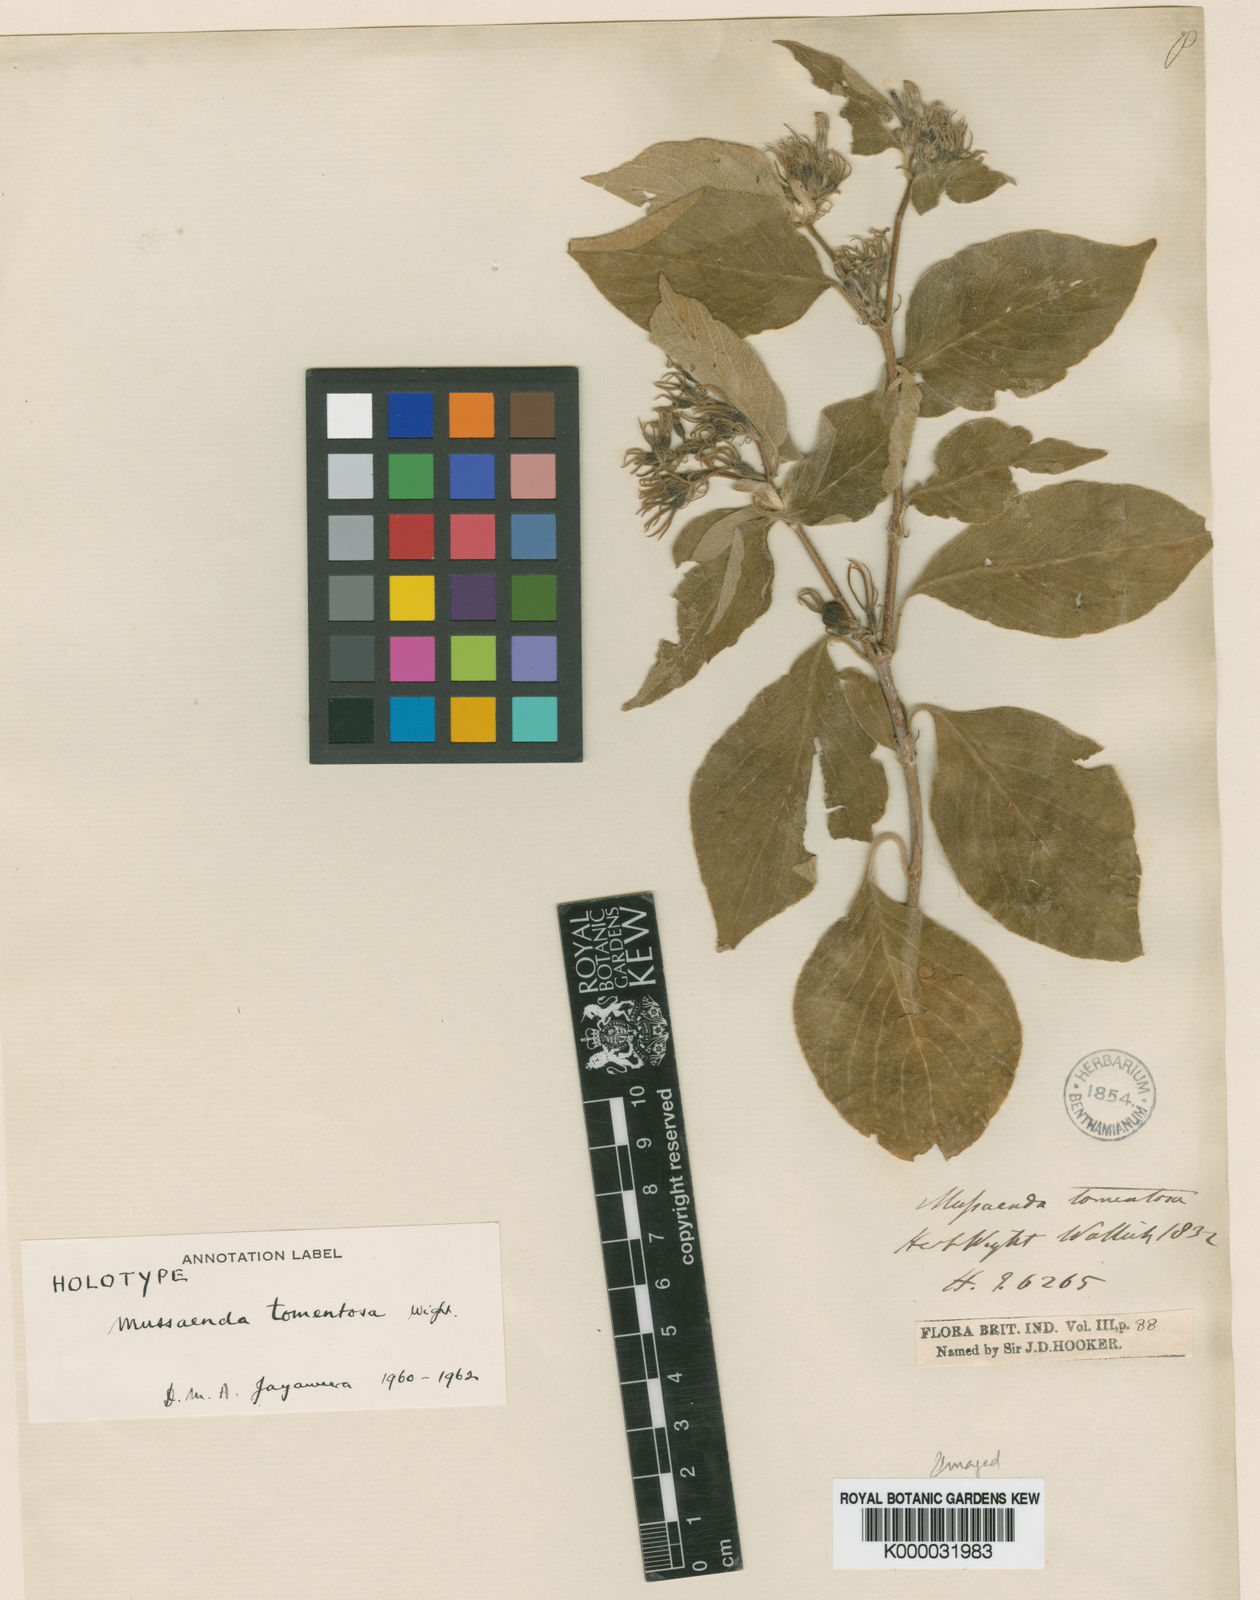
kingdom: Plantae
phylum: Tracheophyta
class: Magnoliopsida
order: Gentianales
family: Rubiaceae
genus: Mussaenda
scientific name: Mussaenda
